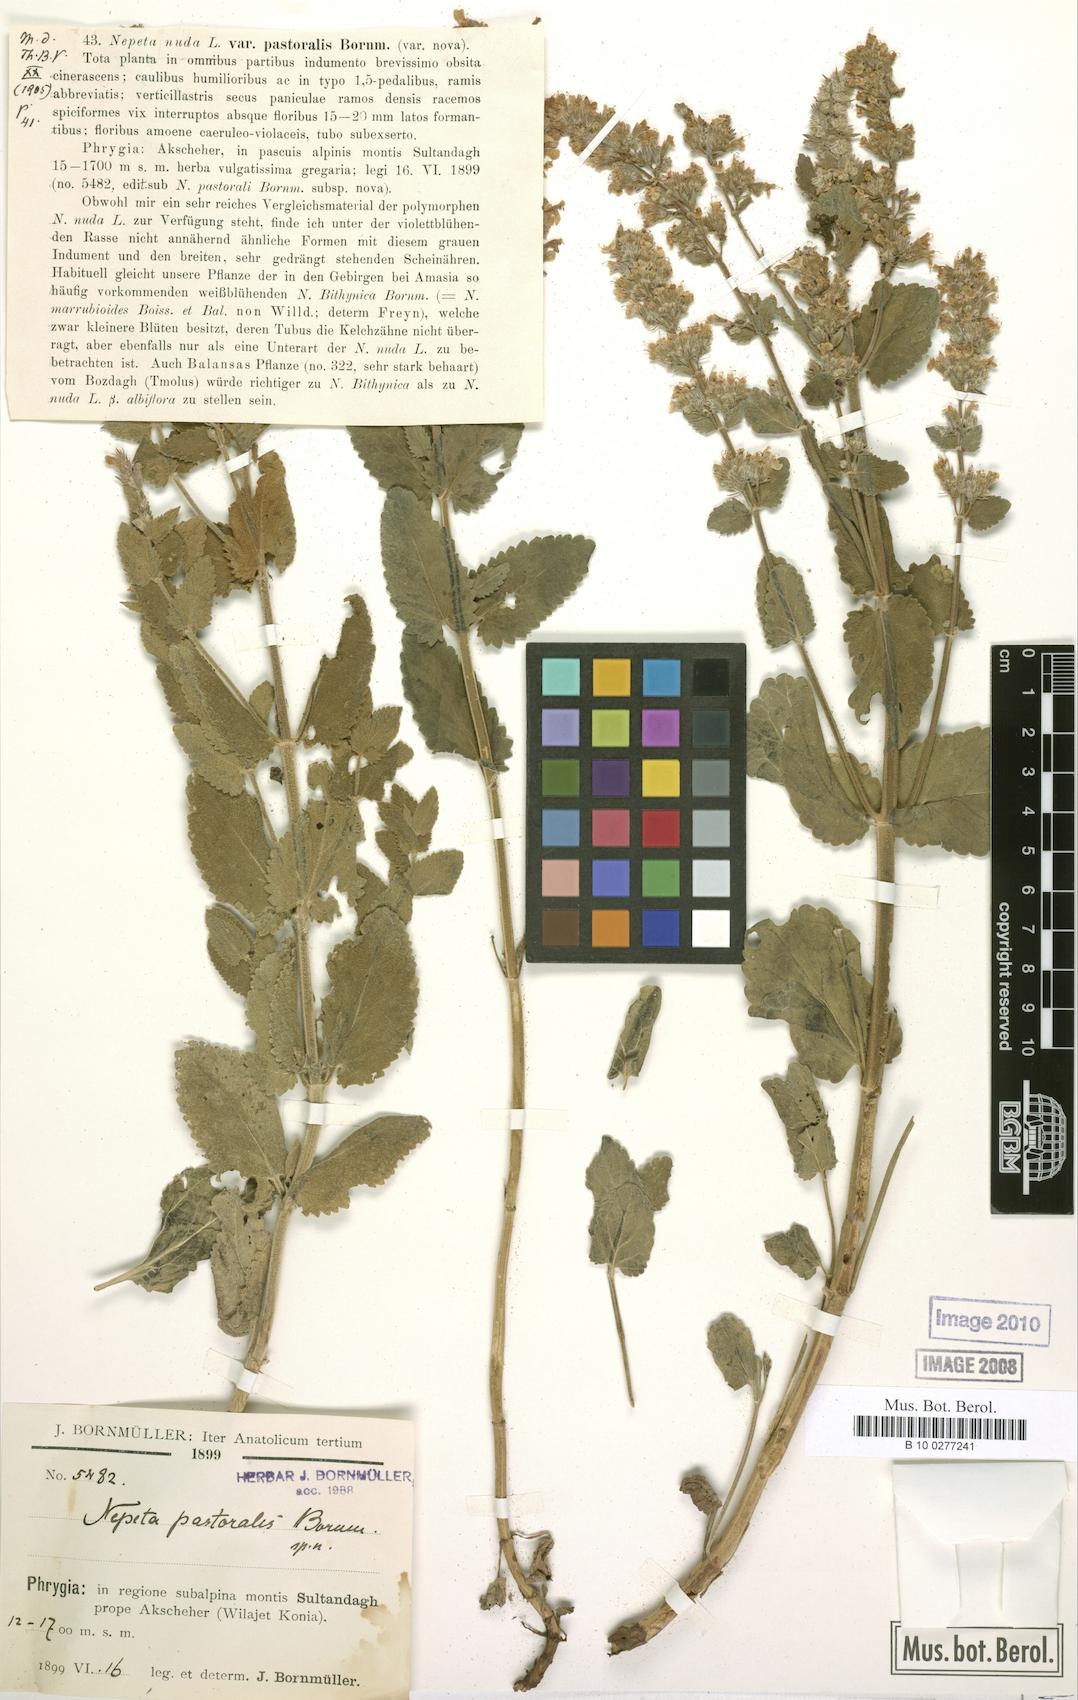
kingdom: Plantae
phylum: Tracheophyta
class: Magnoliopsida
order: Lamiales
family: Lamiaceae
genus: Nepeta
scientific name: Nepeta
